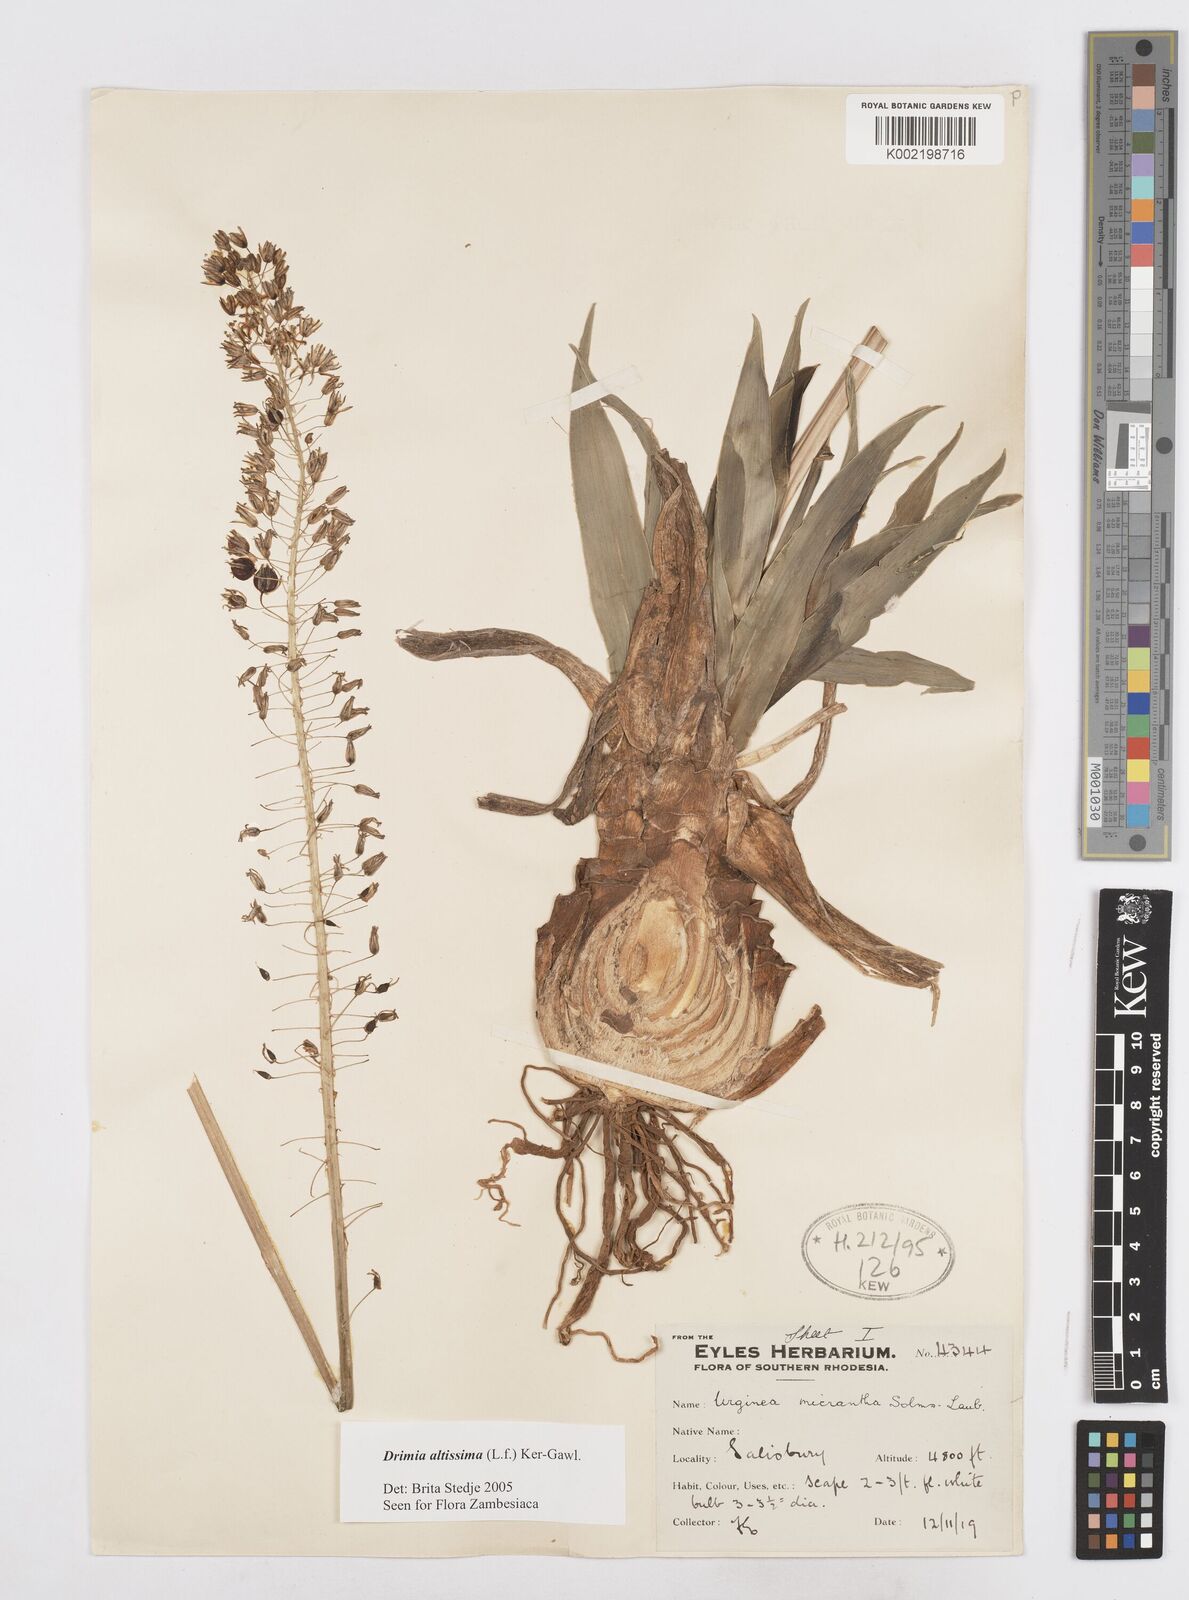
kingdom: Plantae
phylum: Tracheophyta
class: Liliopsida
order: Asparagales
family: Asparagaceae
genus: Drimia
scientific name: Drimia
